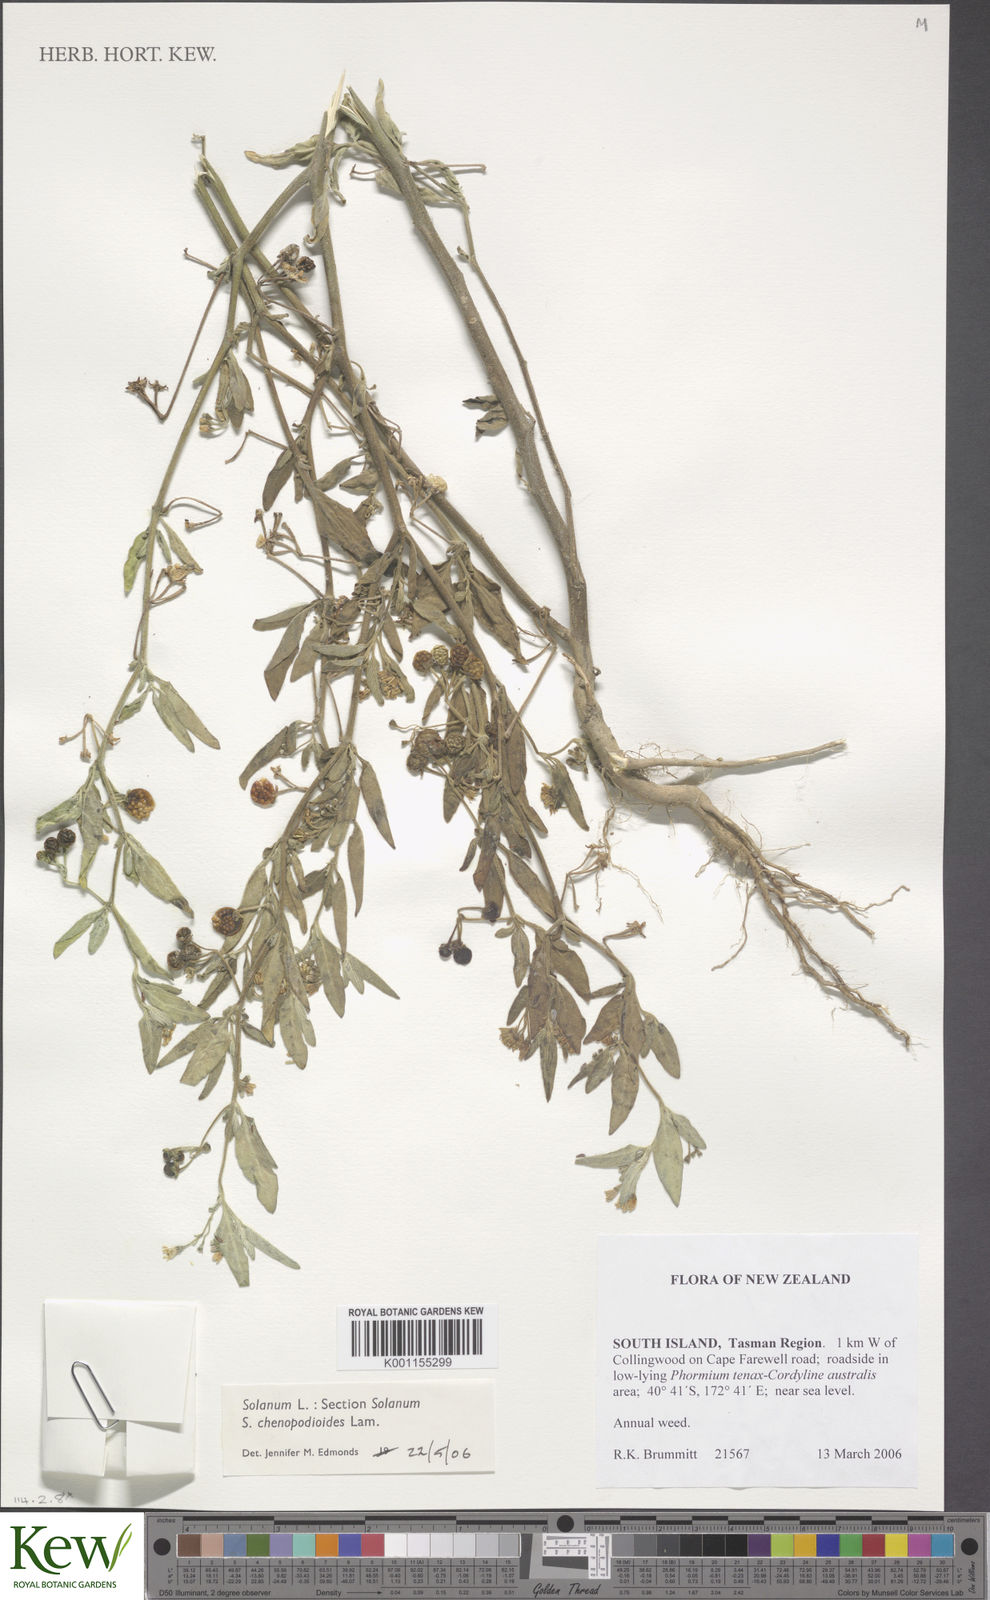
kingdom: Plantae
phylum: Tracheophyta
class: Magnoliopsida
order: Solanales
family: Solanaceae
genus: Solanum
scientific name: Solanum chenopodioides
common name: Tall nightshade
